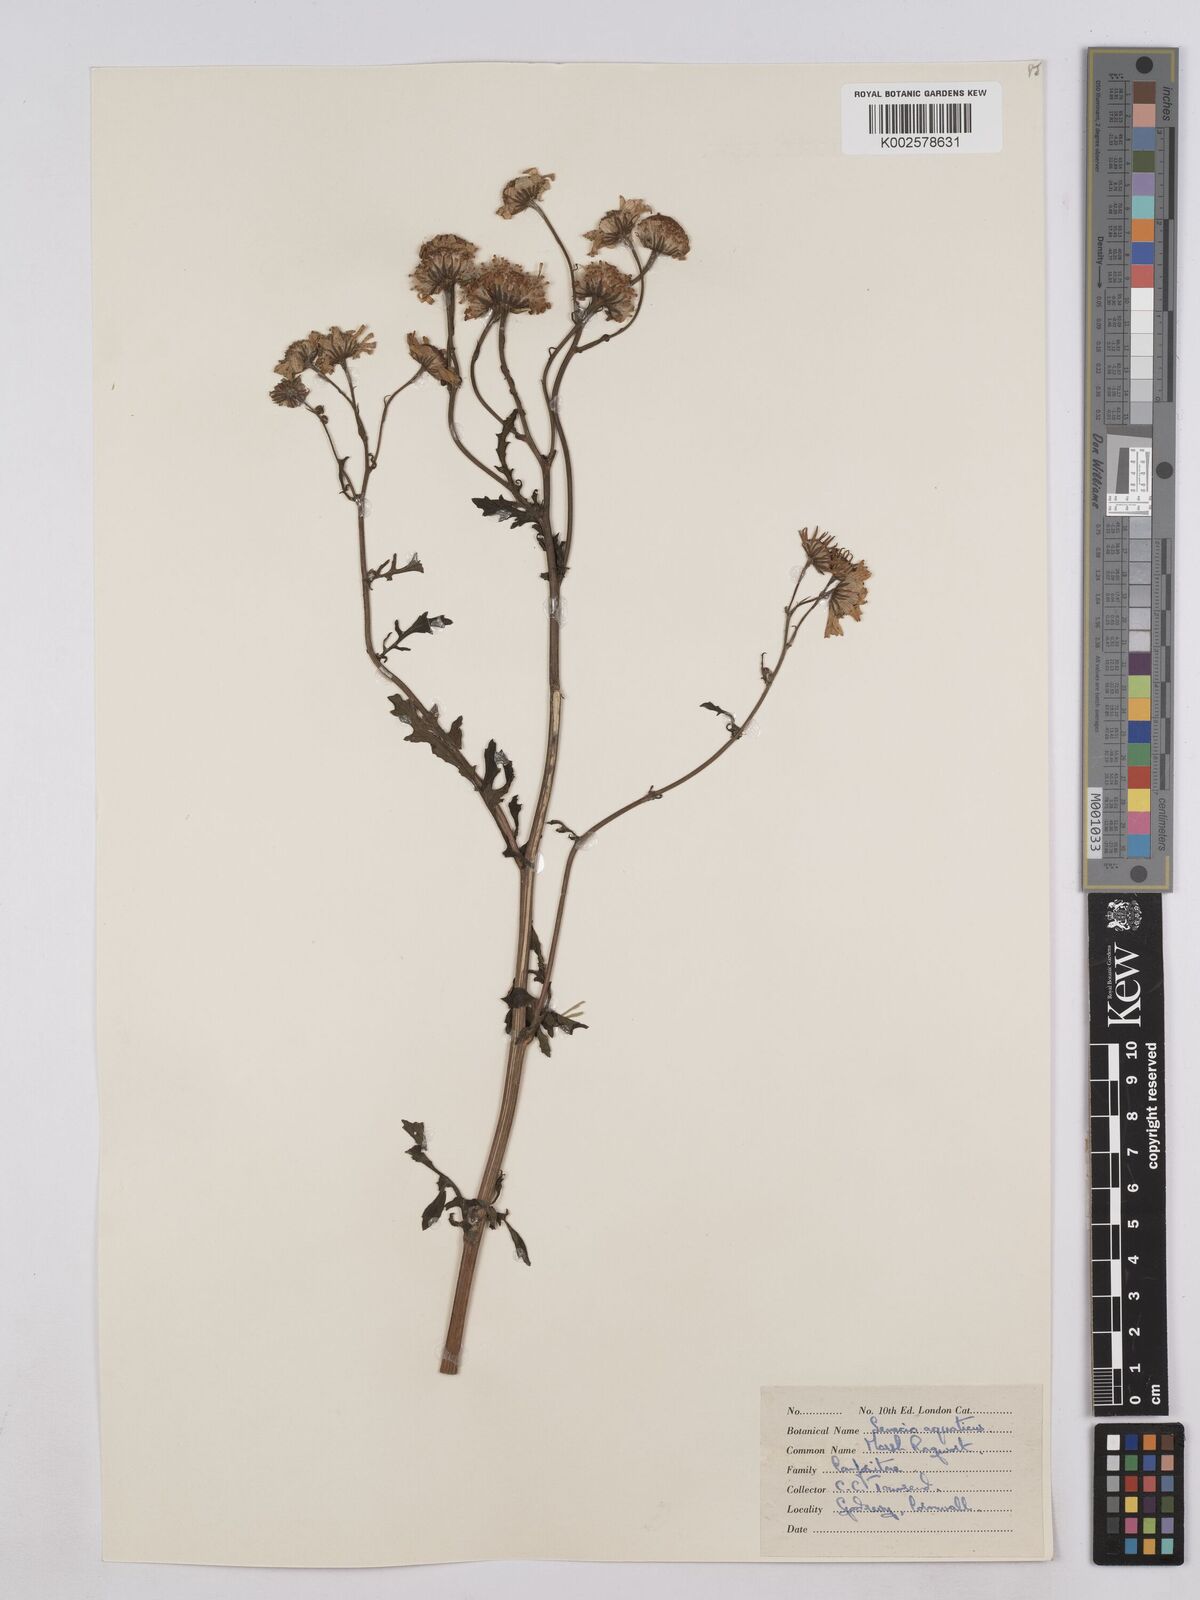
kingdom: Plantae
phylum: Tracheophyta
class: Magnoliopsida
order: Asterales
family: Asteraceae
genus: Jacobaea
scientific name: Jacobaea aquatica
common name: Water ragwort
